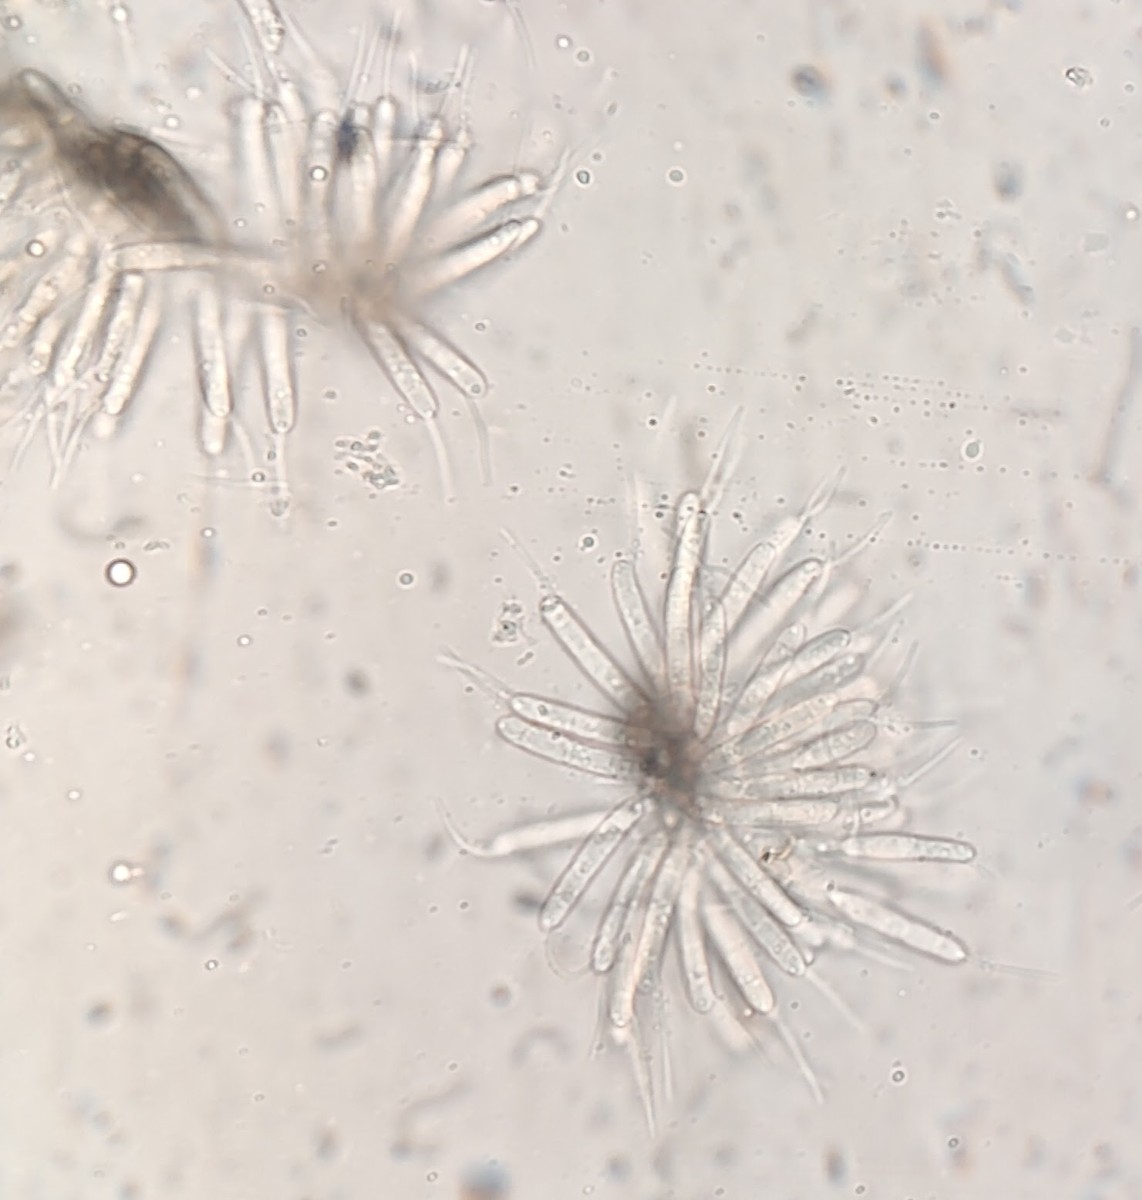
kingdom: Fungi
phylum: Ascomycota
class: Sordariomycetes
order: Amphisphaeriales
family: Discosiaceae
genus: Discosia
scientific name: Discosia artocreas
